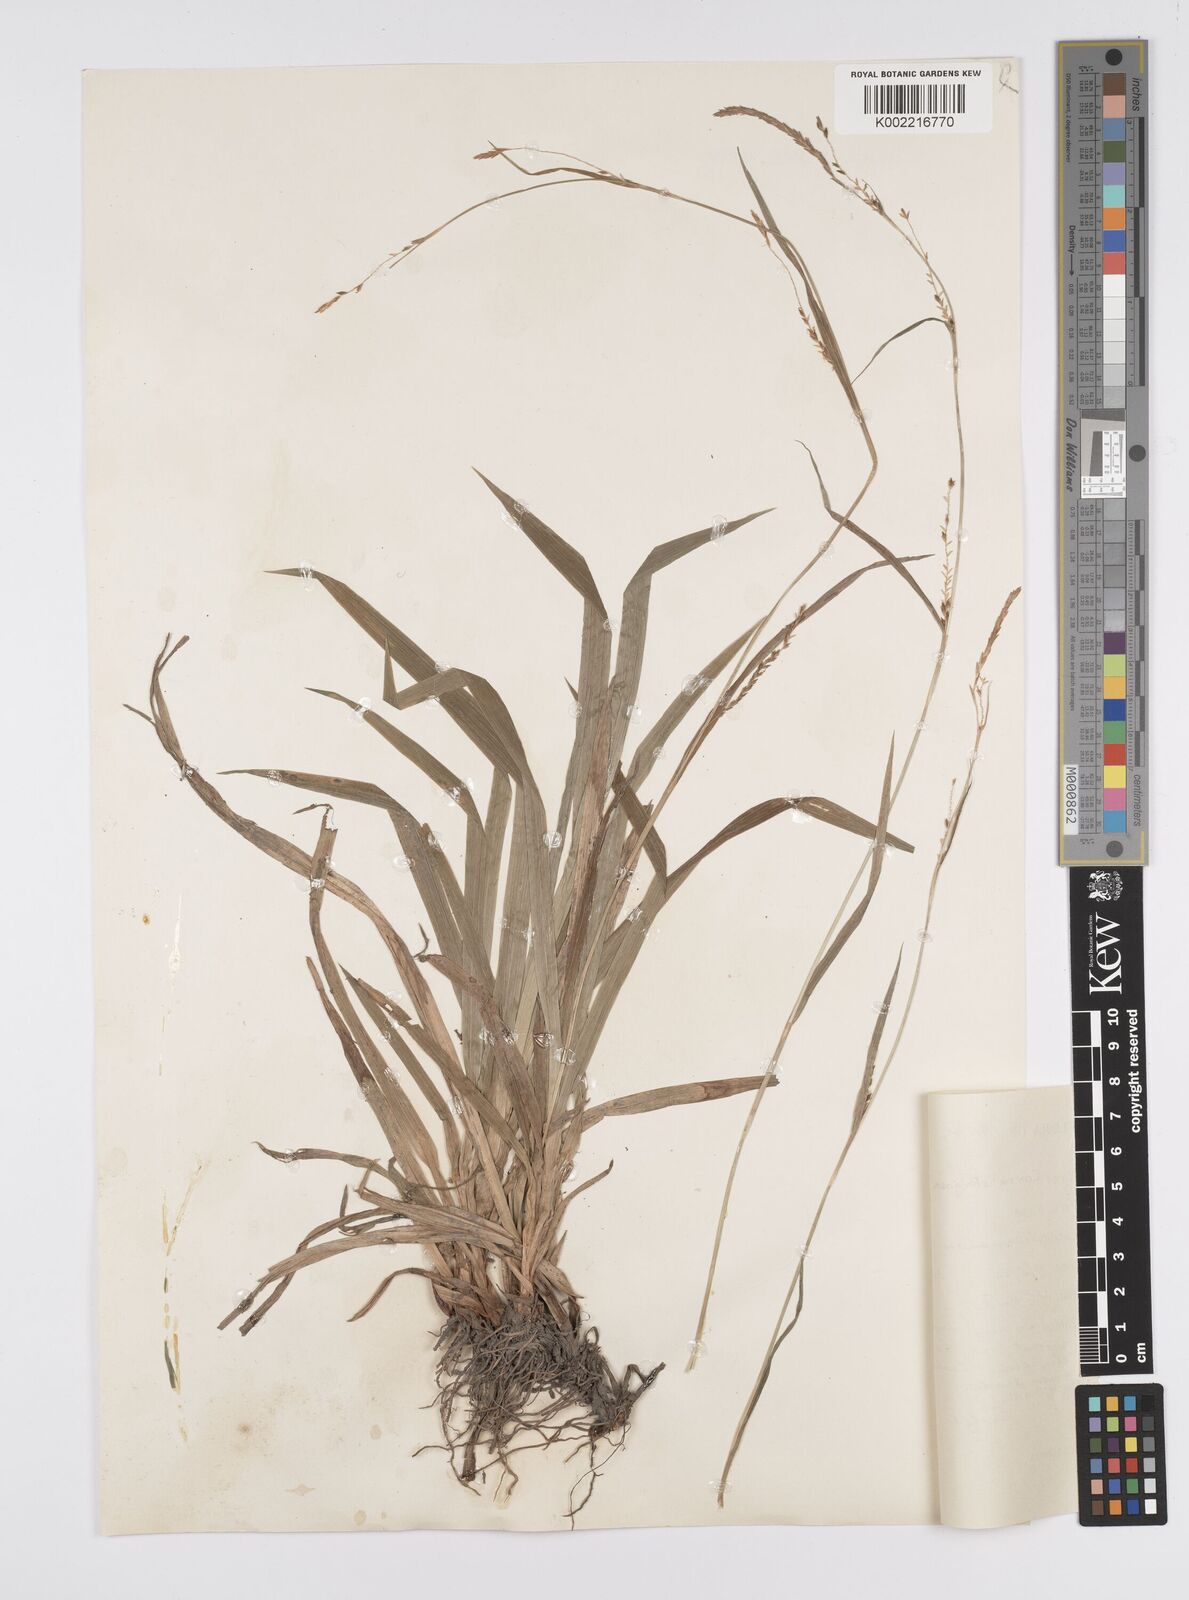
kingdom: Plantae
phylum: Tracheophyta
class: Liliopsida
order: Poales
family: Cyperaceae
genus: Carex
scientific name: Carex strigosa
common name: Thin-spiked wood-sedge
